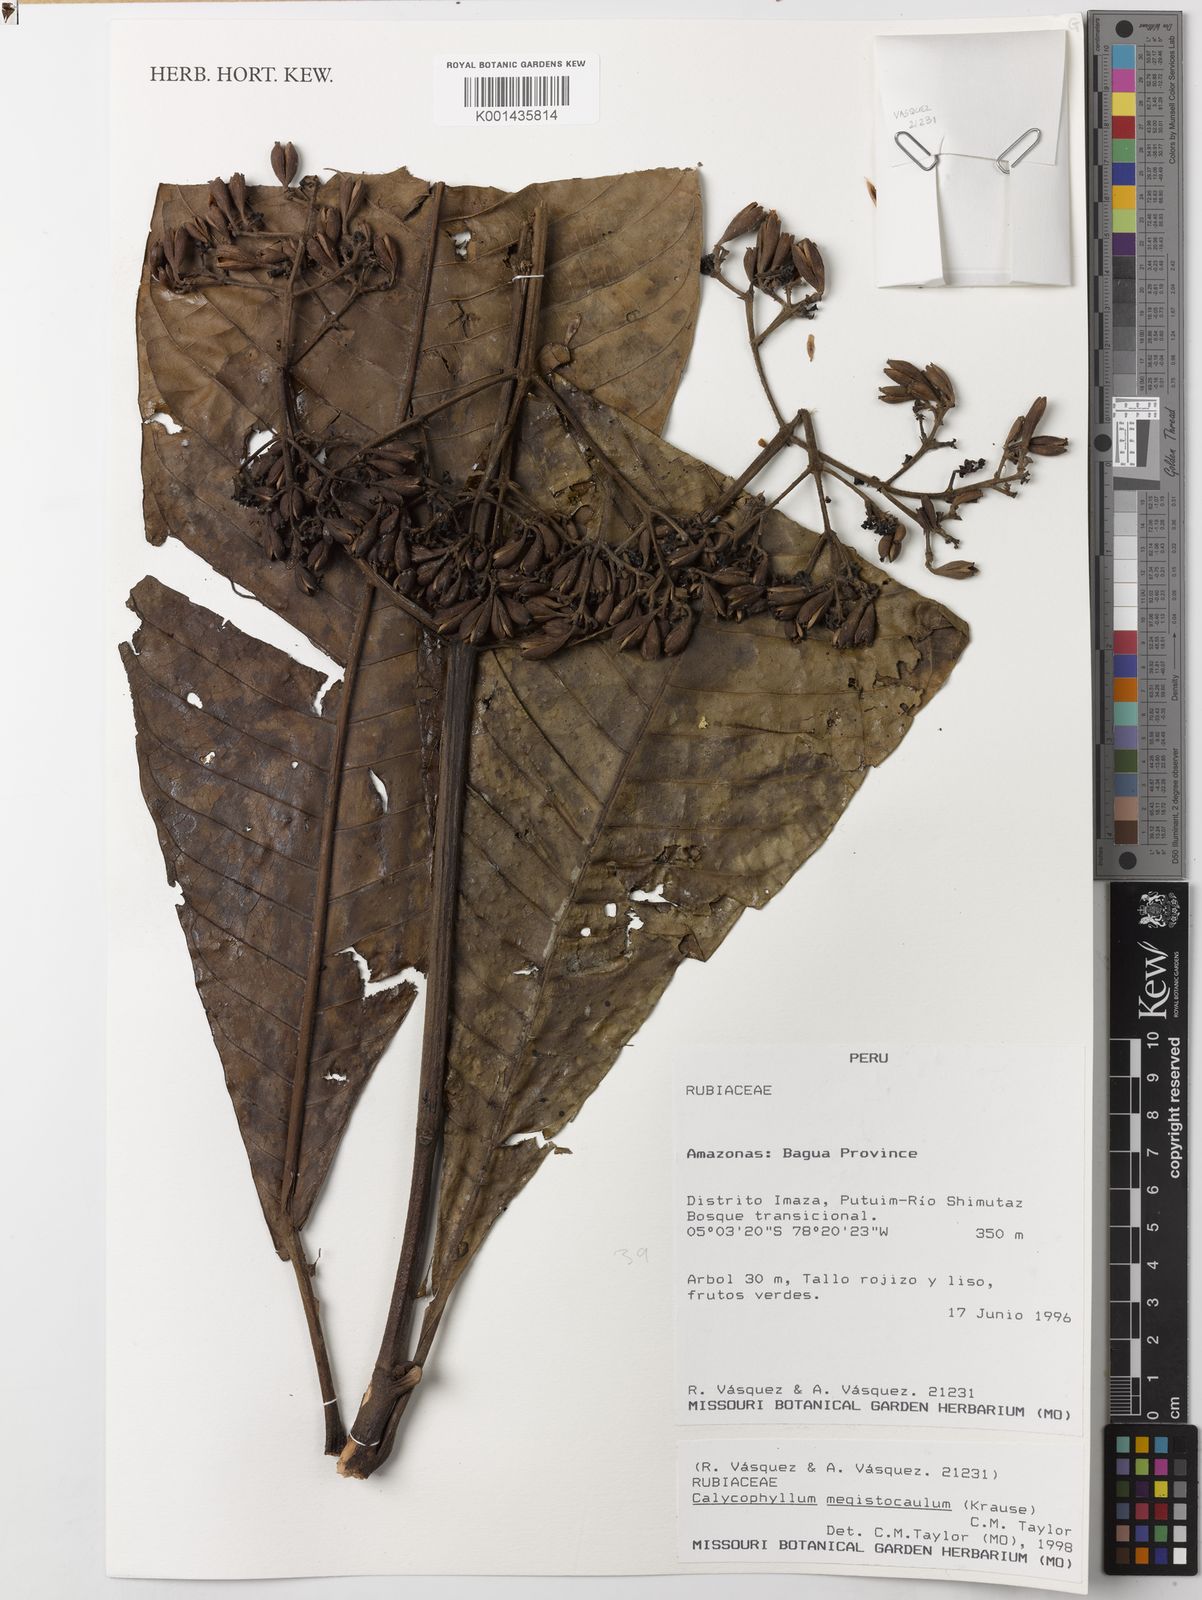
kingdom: Plantae
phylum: Tracheophyta
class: Magnoliopsida
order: Gentianales
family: Rubiaceae
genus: Calycophyllum
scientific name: Calycophyllum megistocaulum
